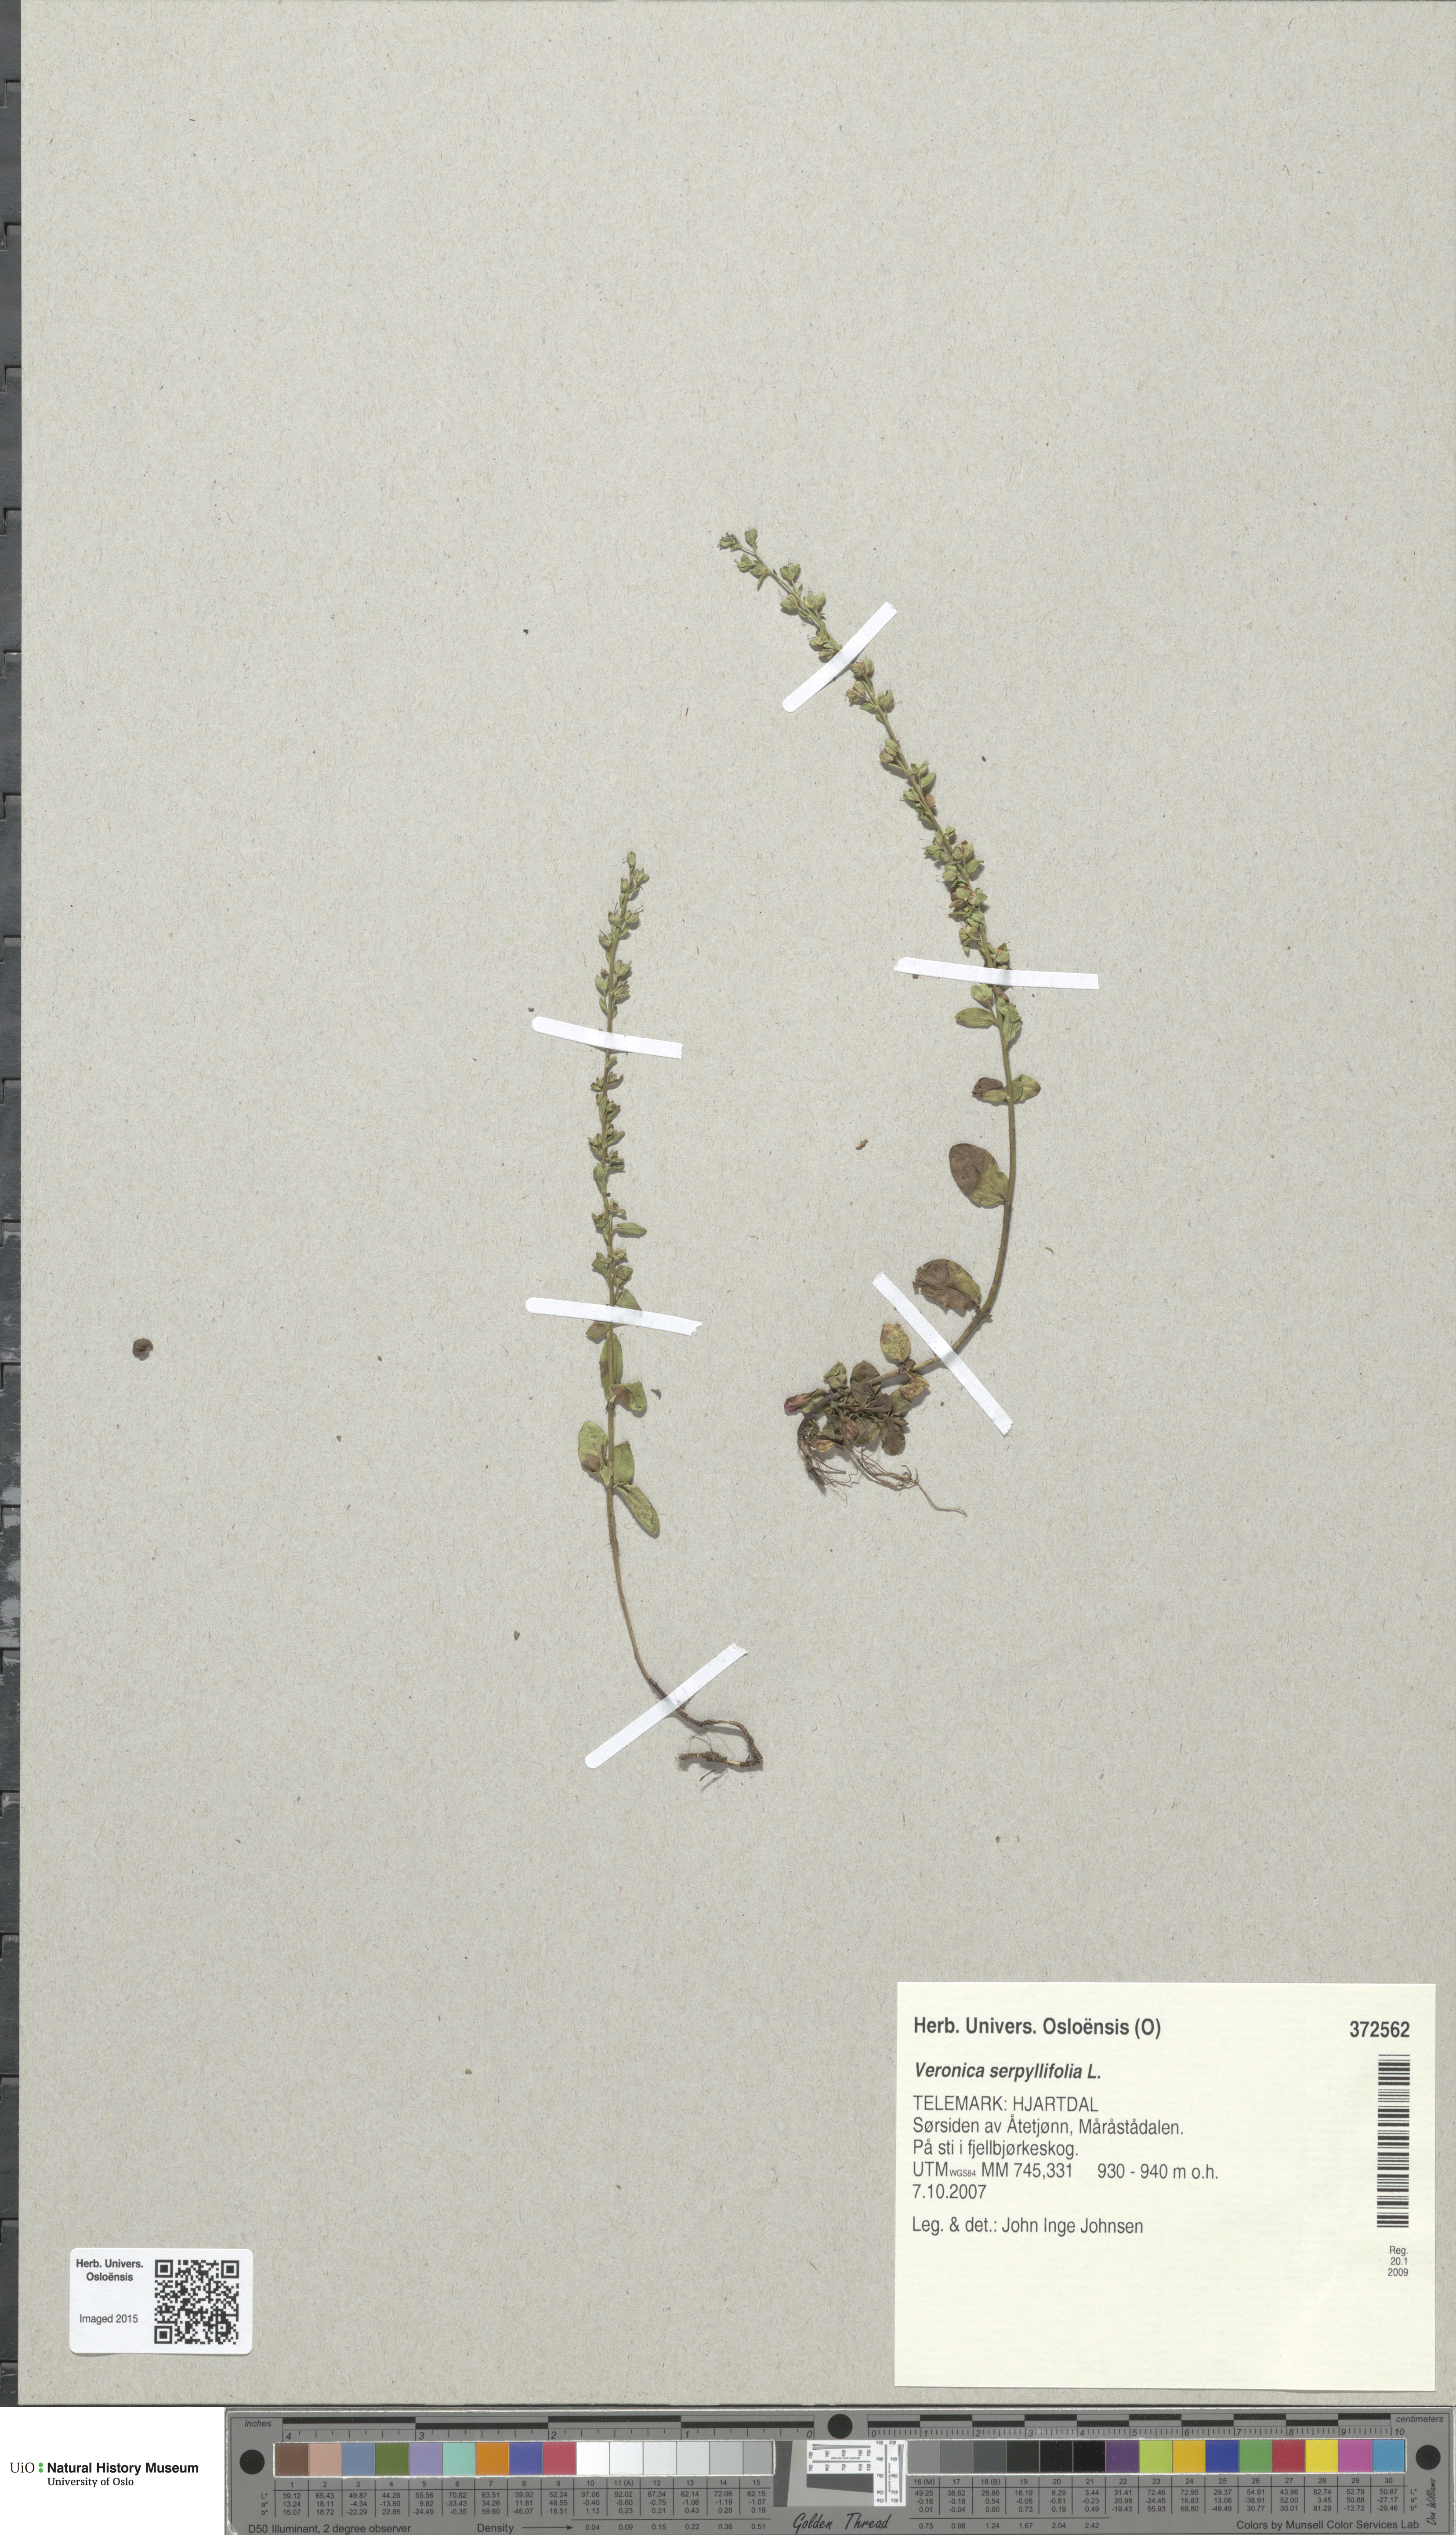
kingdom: Plantae
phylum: Tracheophyta
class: Magnoliopsida
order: Lamiales
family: Plantaginaceae
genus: Veronica
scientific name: Veronica serpyllifolia
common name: Thyme-leaved speedwell
